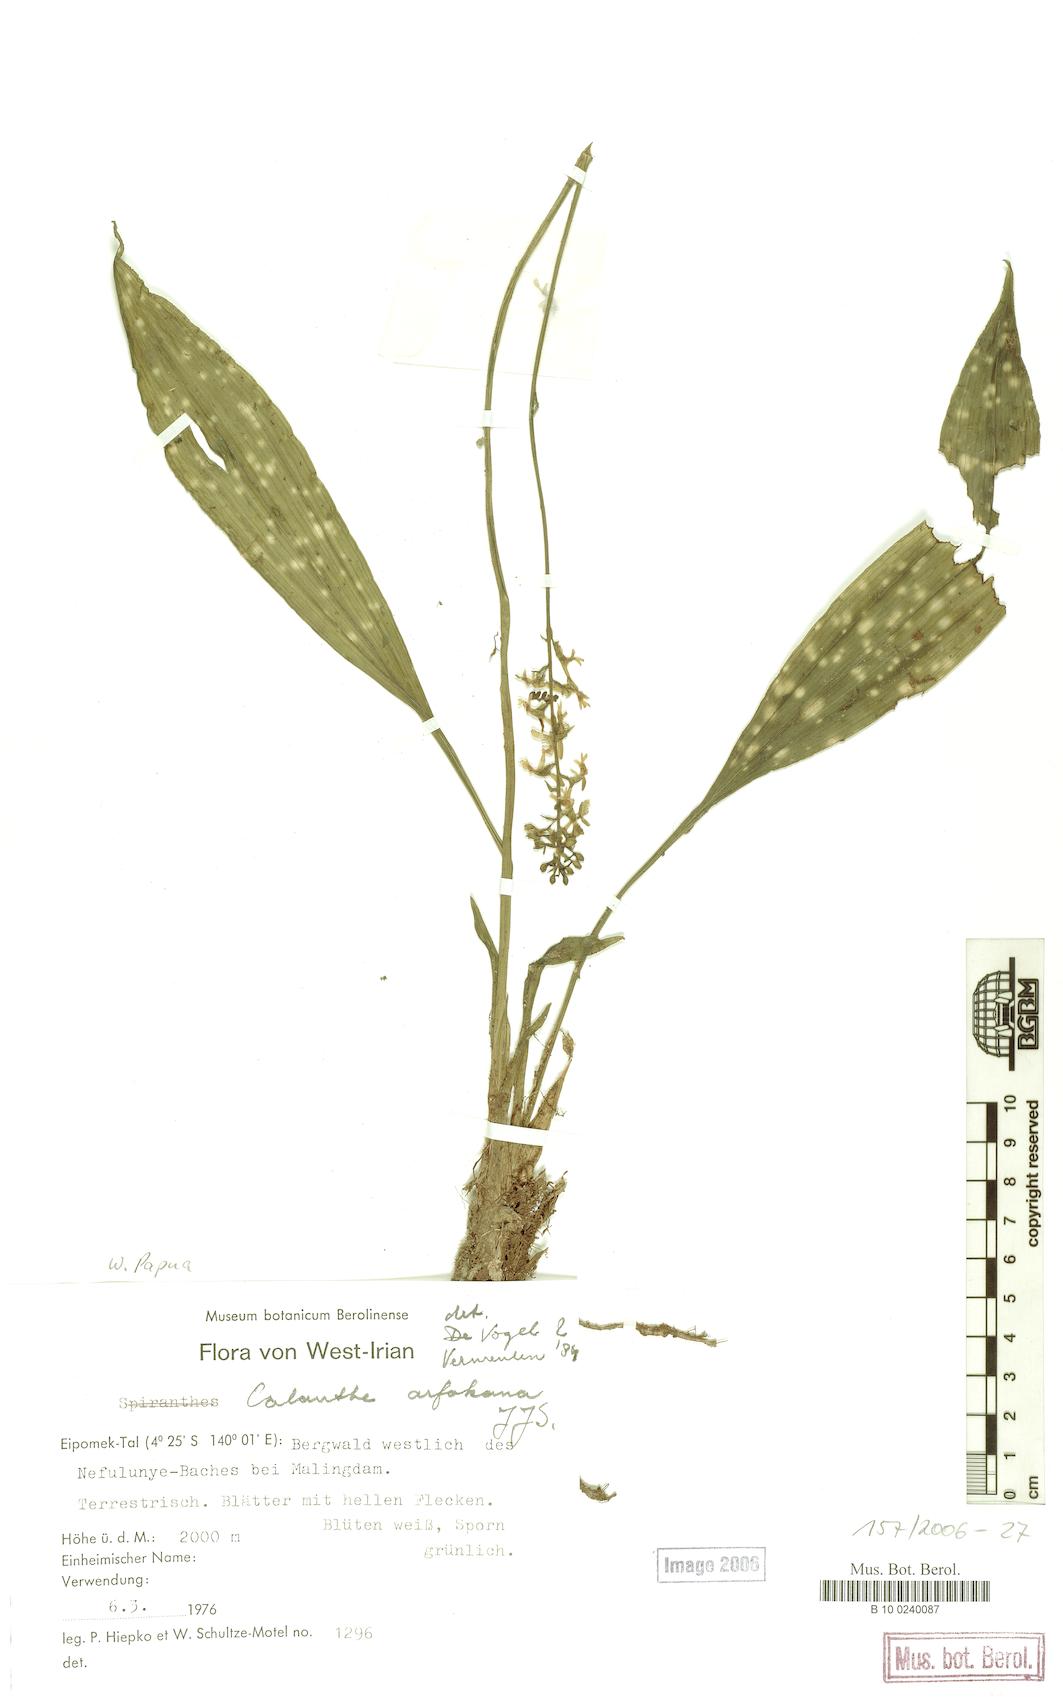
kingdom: Plantae
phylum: Tracheophyta
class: Liliopsida
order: Asparagales
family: Orchidaceae
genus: Calanthe
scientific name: Calanthe arfakana
